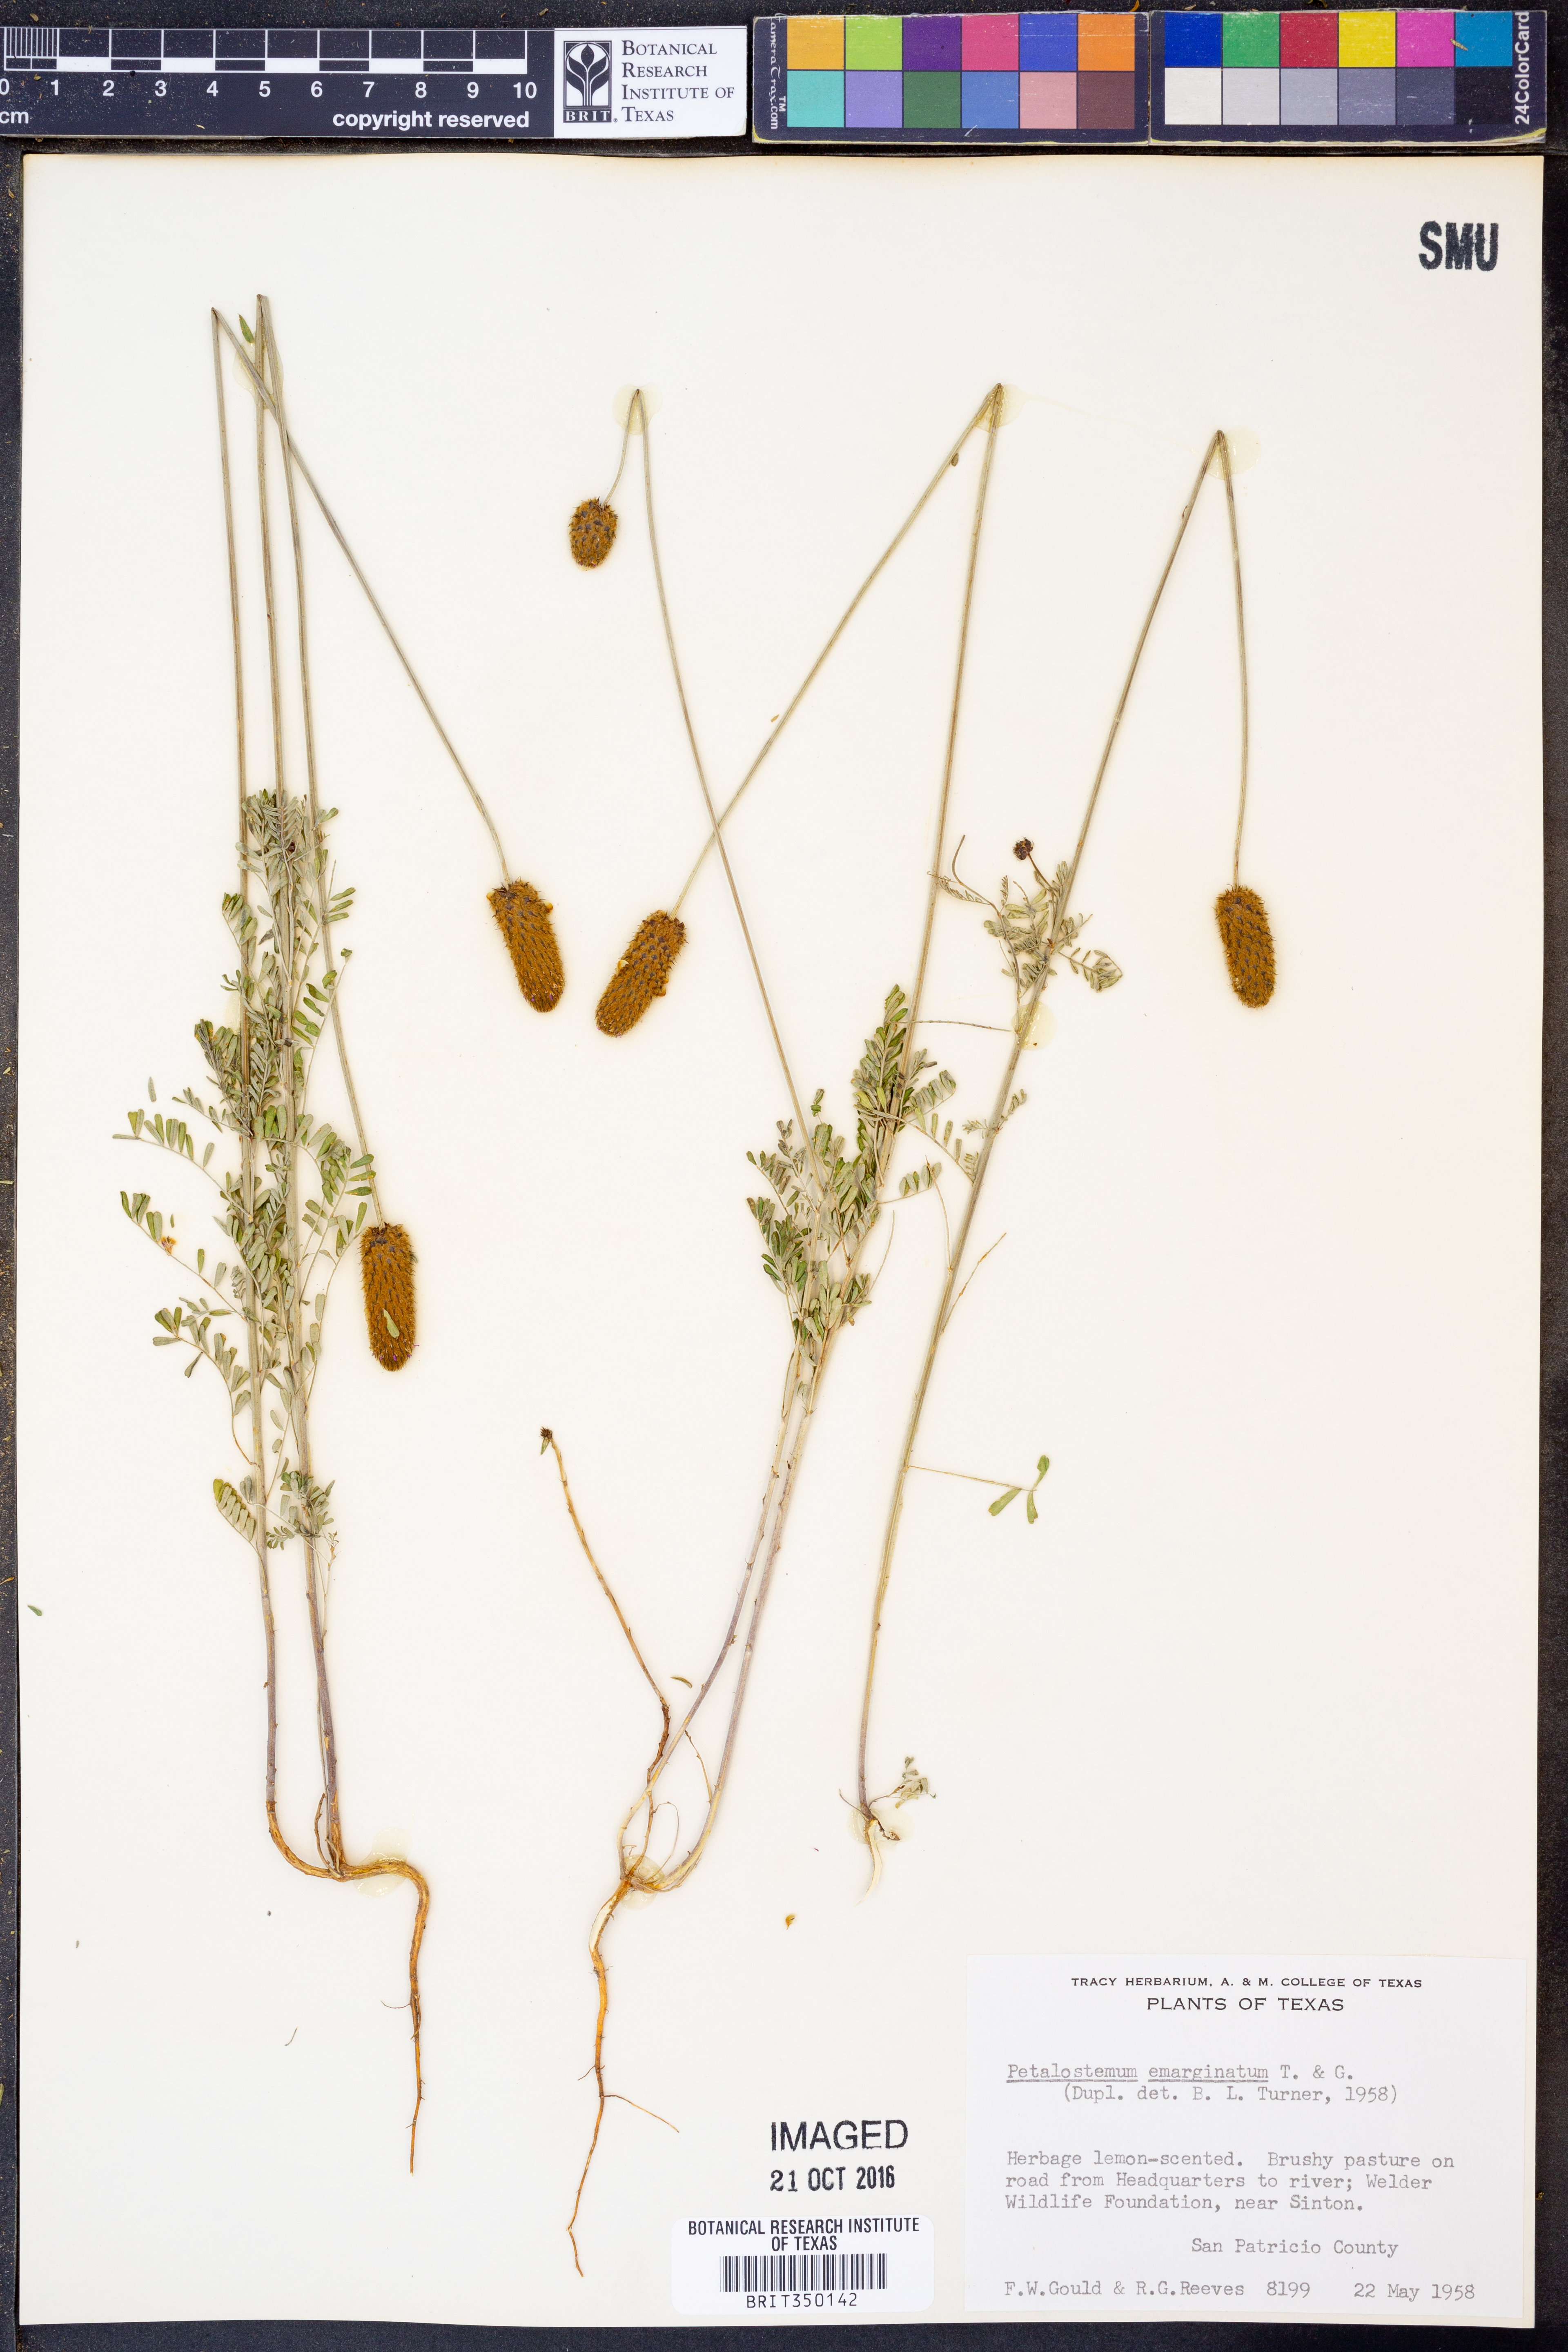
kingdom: Plantae
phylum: Tracheophyta
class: Magnoliopsida
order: Fabales
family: Fabaceae
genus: Dalea
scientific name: Dalea emarginata
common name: Wedgeleaf prairie clover
